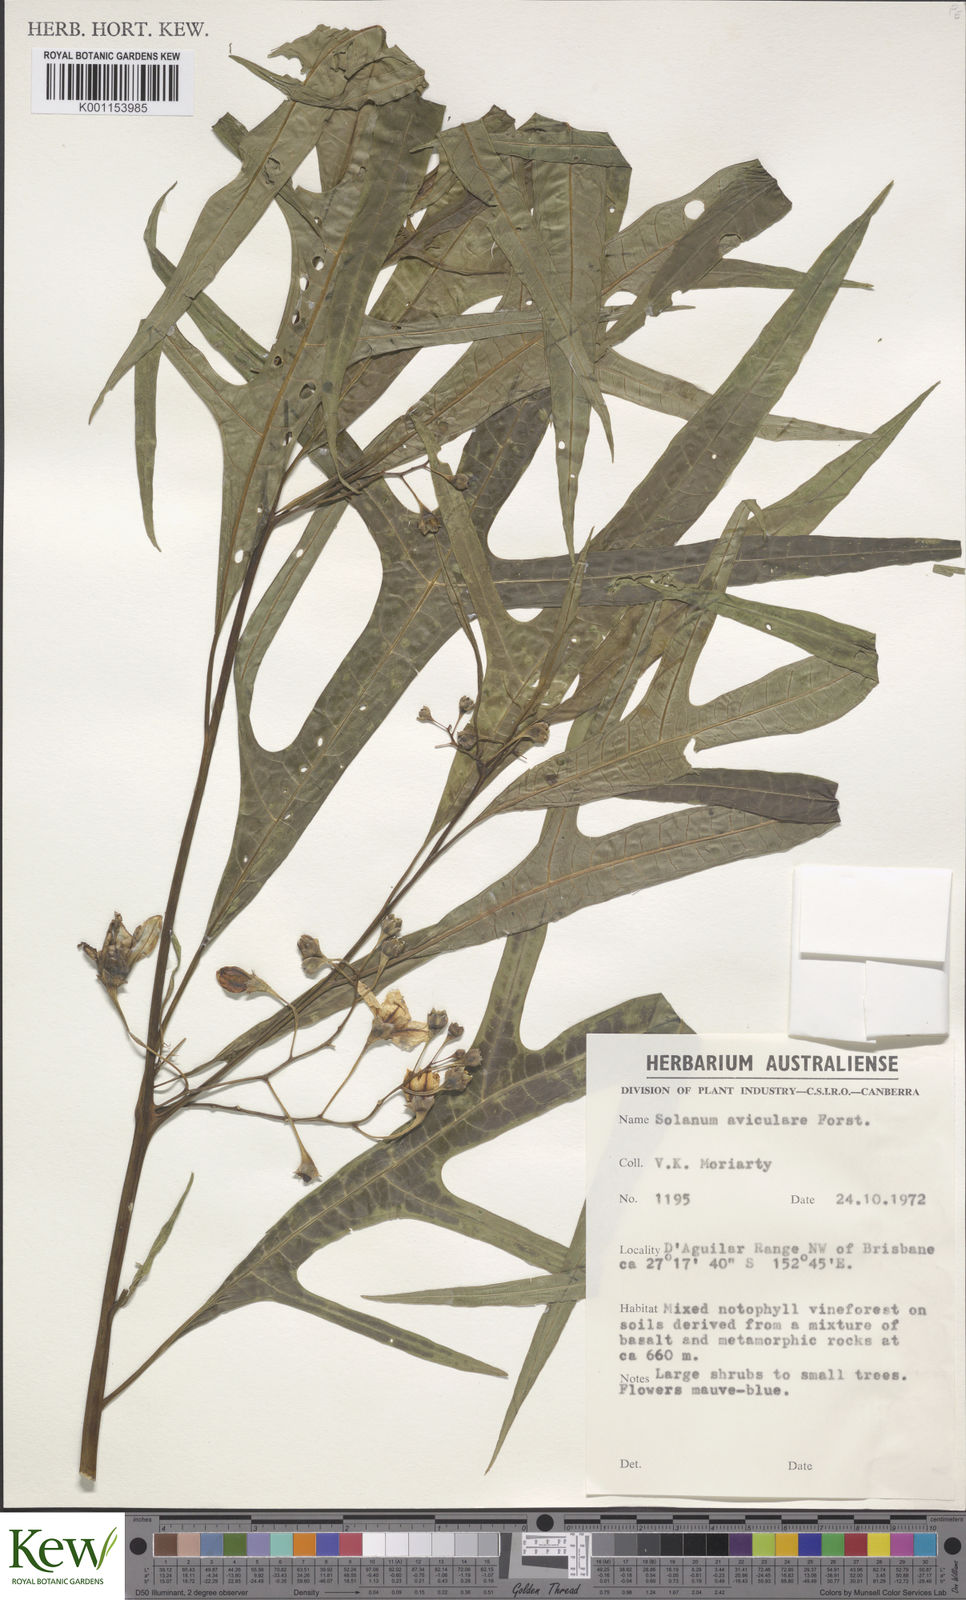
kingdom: Plantae
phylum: Tracheophyta
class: Magnoliopsida
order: Solanales
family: Solanaceae
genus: Solanum
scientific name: Solanum aviculare
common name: New zealand nightshade
